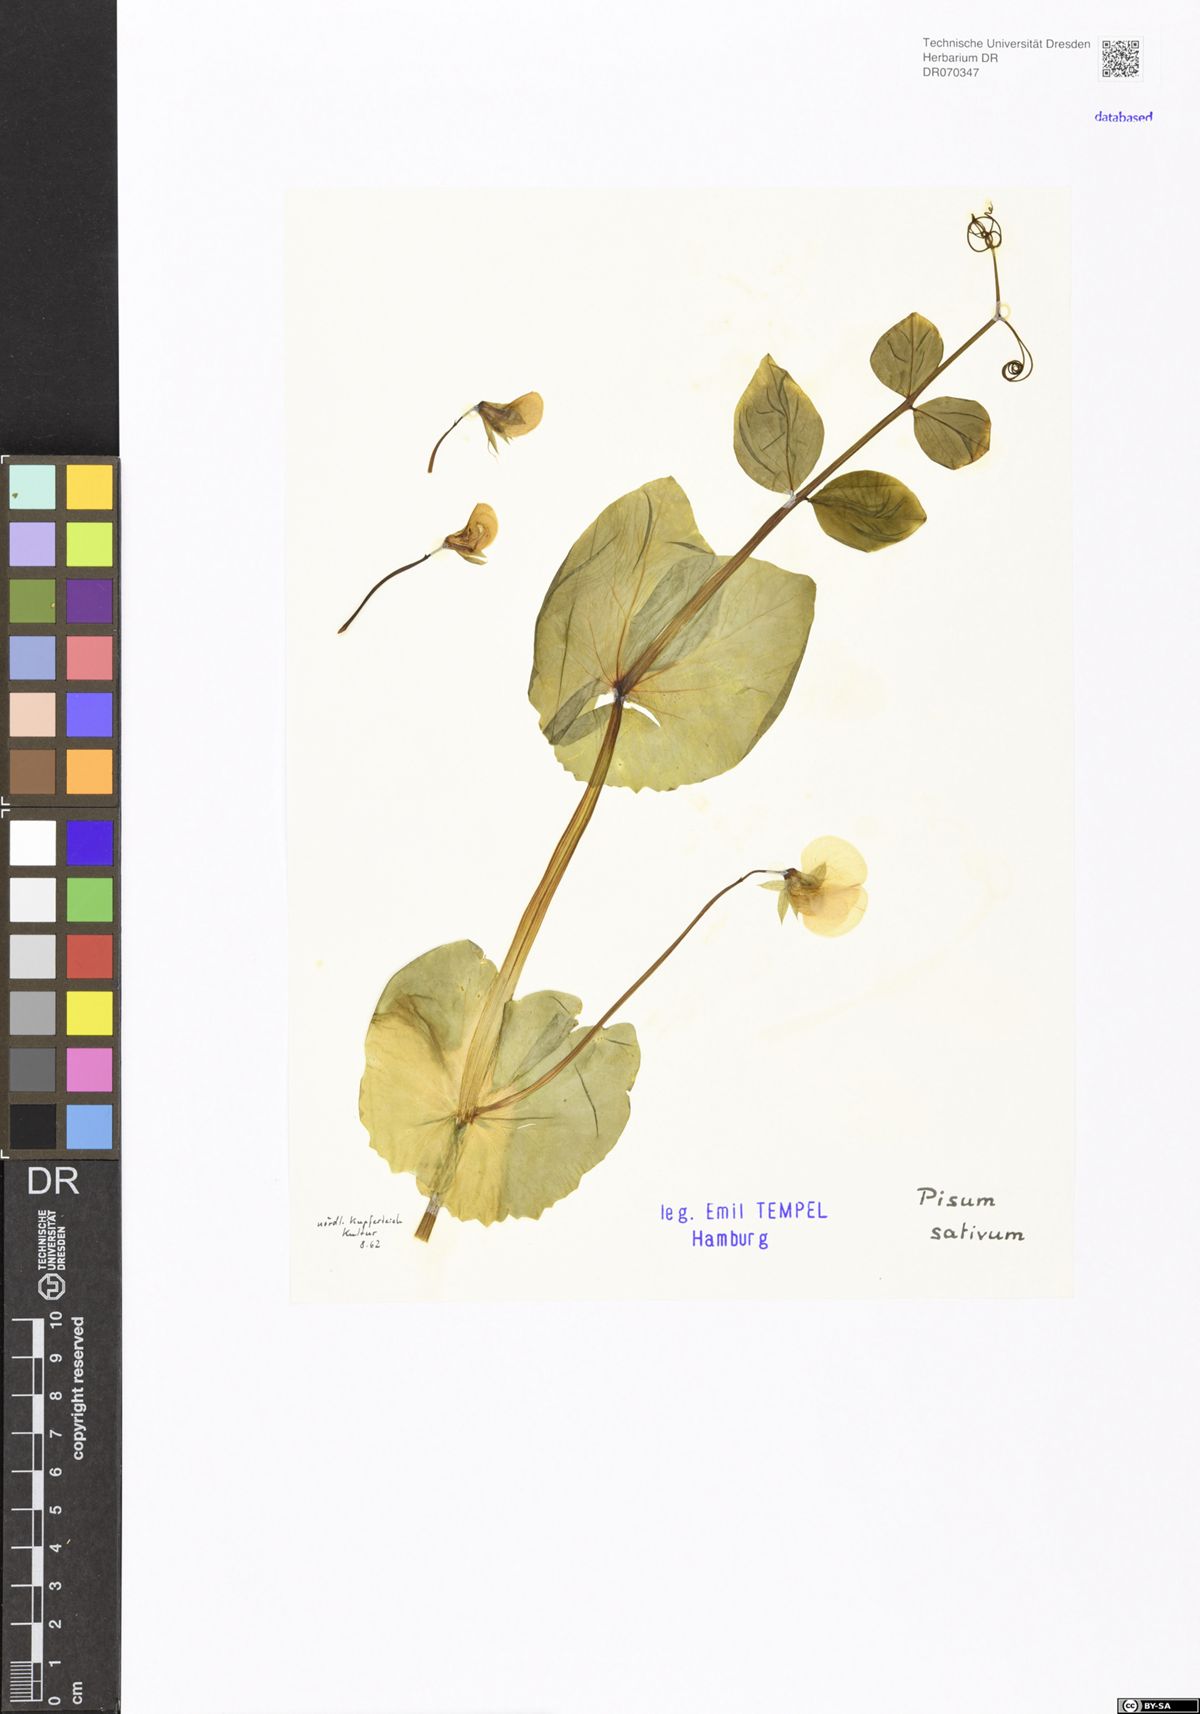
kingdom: Plantae
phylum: Tracheophyta
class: Magnoliopsida
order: Fabales
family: Fabaceae
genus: Lathyrus
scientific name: Lathyrus oleraceus
